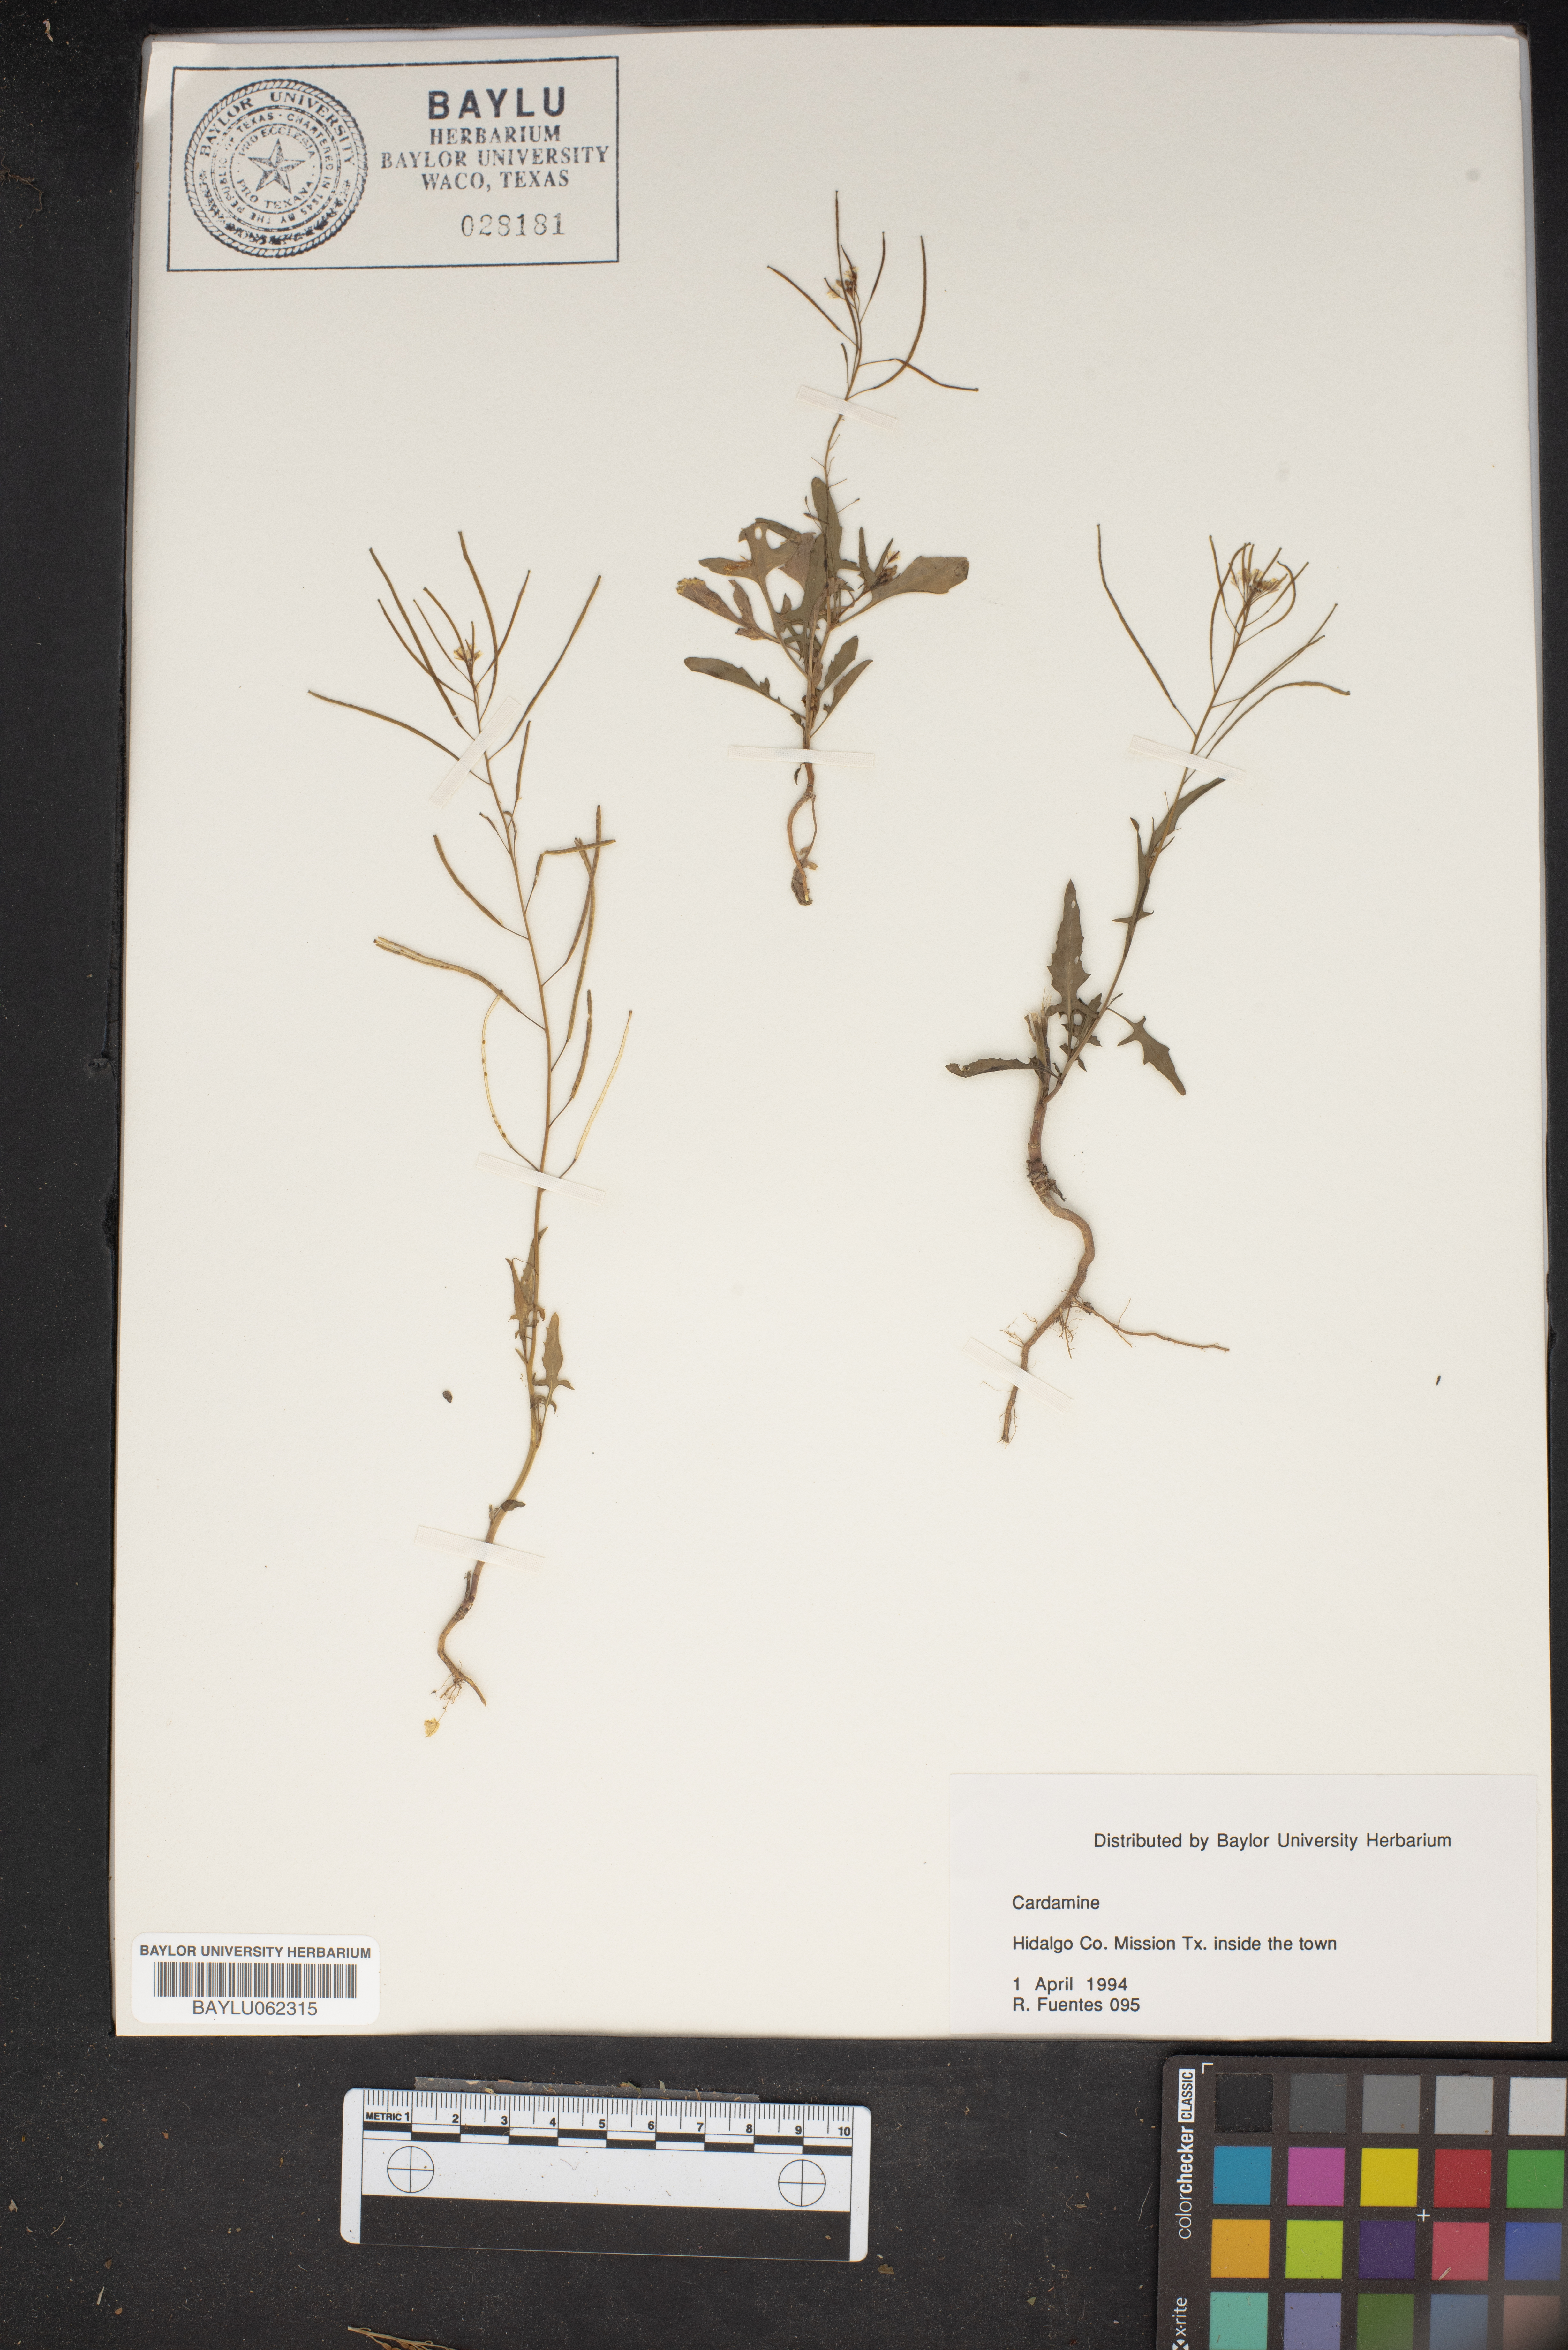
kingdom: Plantae
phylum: Tracheophyta
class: Magnoliopsida
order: Brassicales
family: Brassicaceae
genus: Cardamine
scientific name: Cardamine
